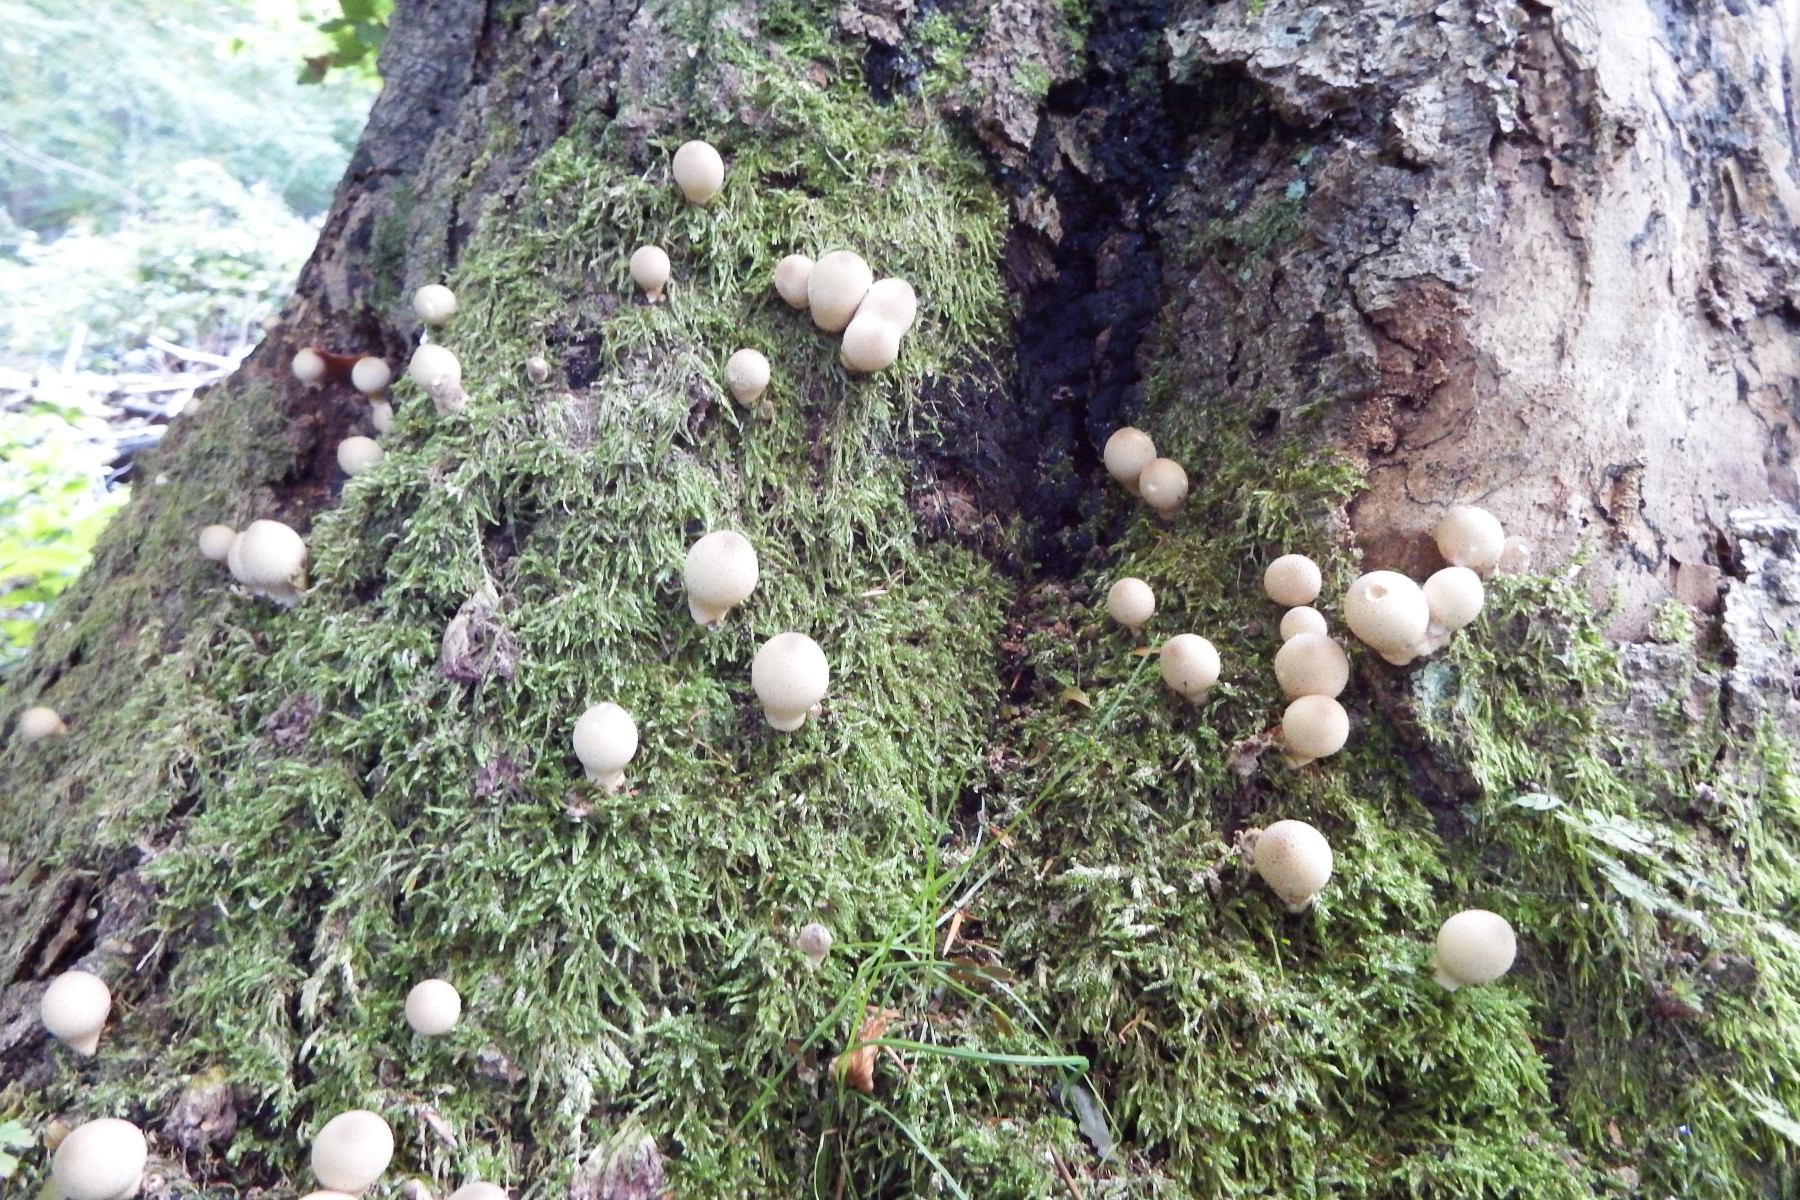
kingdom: Fungi
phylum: Basidiomycota
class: Agaricomycetes
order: Agaricales
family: Lycoperdaceae
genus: Apioperdon
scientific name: Apioperdon pyriforme
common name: pære-støvbold
